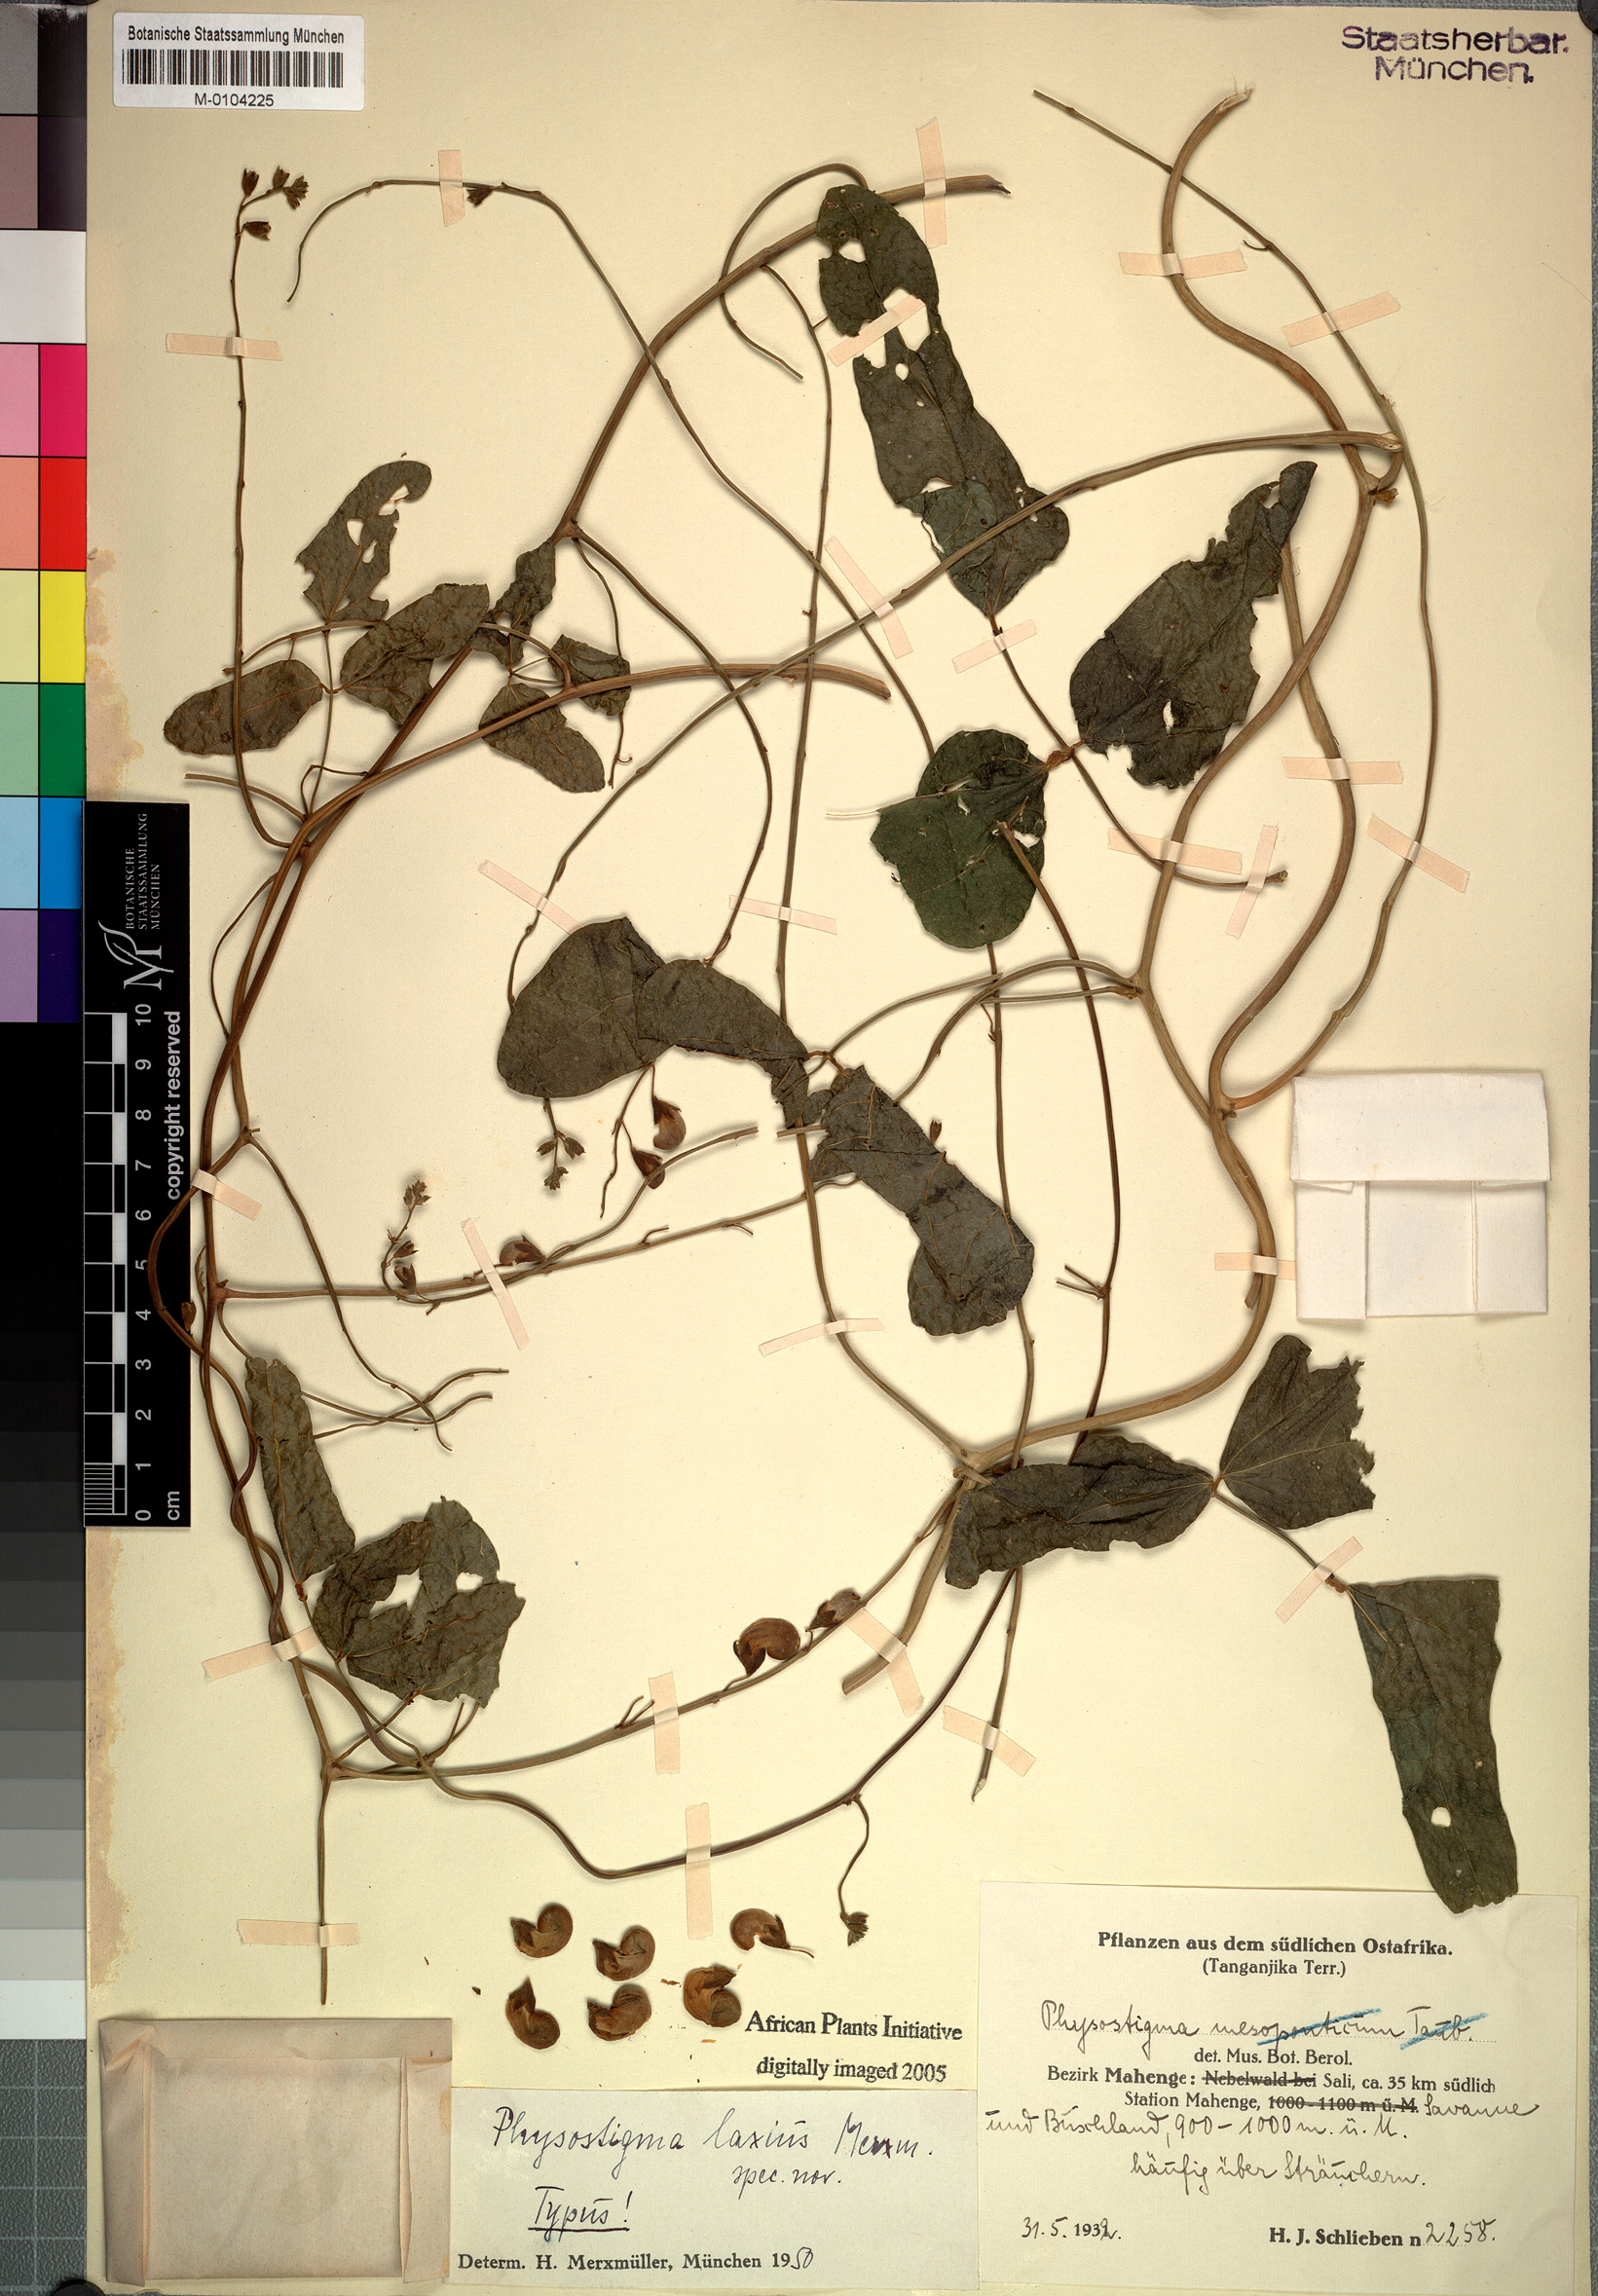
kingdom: Plantae
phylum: Tracheophyta
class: Magnoliopsida
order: Fabales
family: Fabaceae
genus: Physostigma
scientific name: Physostigma laxius
